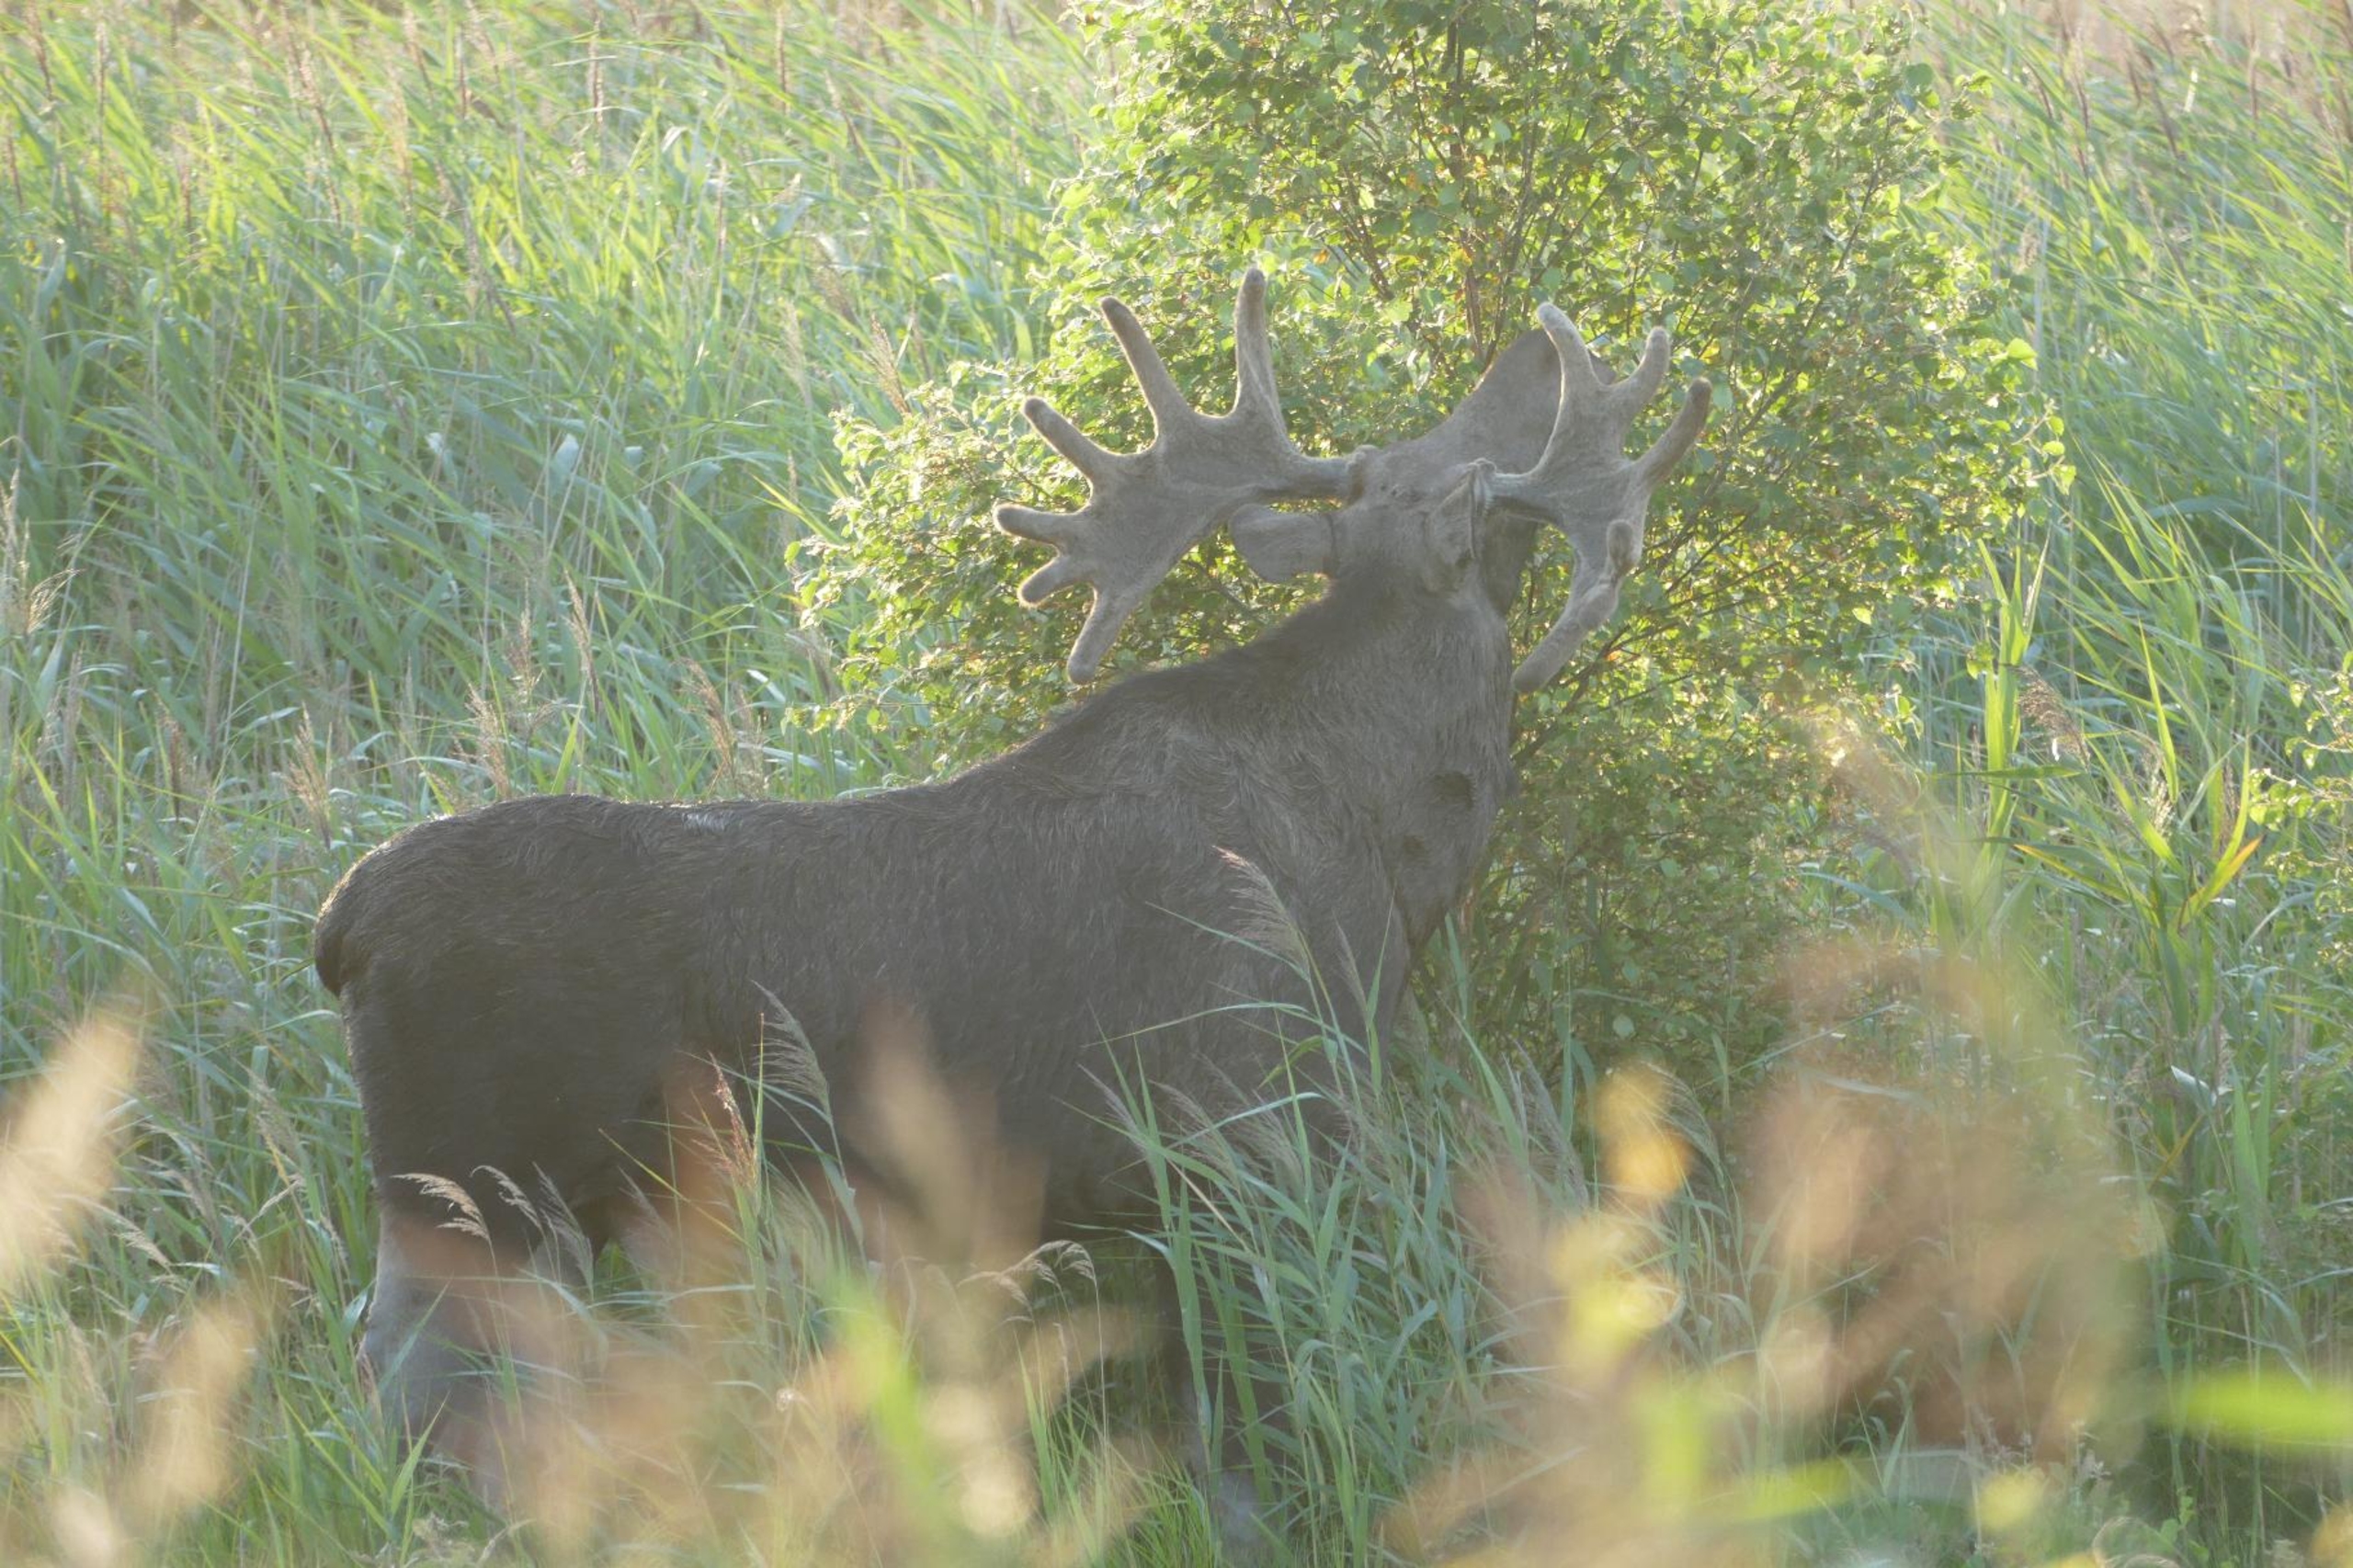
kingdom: Animalia
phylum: Chordata
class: Mammalia
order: Artiodactyla
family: Cervidae
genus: Alces
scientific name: Alces alces
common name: Elg
